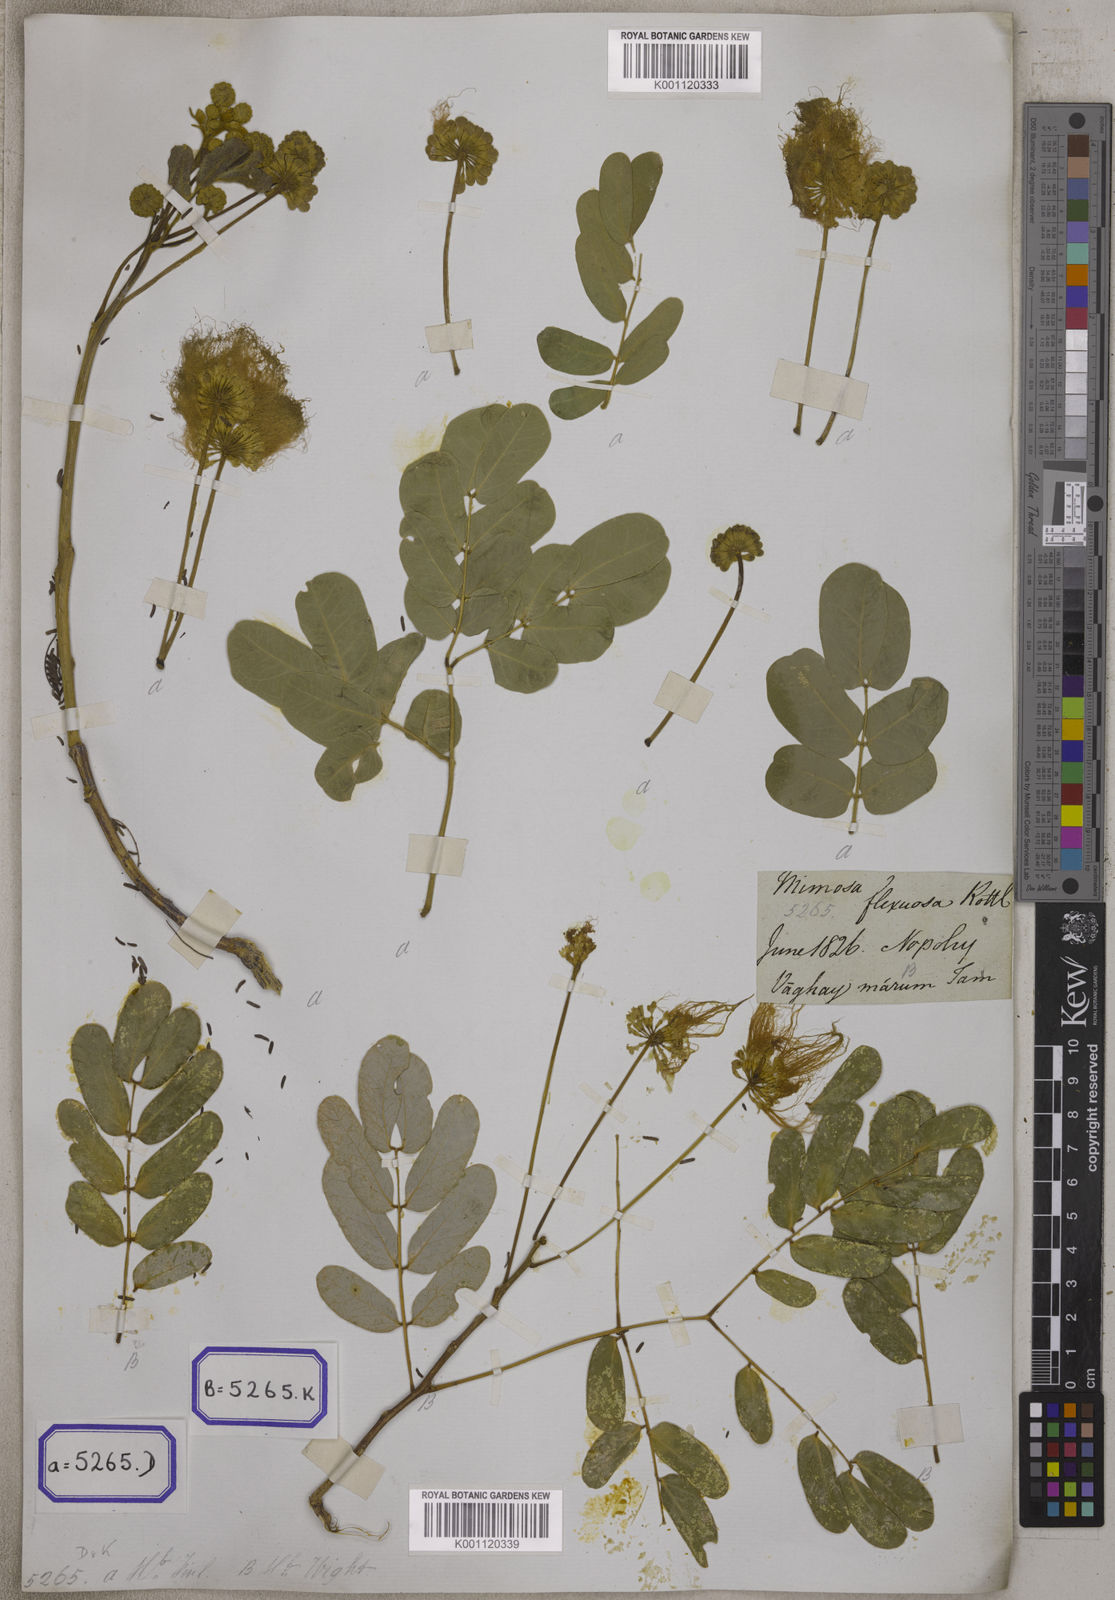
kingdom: Plantae
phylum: Tracheophyta
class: Magnoliopsida
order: Fabales
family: Fabaceae
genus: Acacia
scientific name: Acacia
